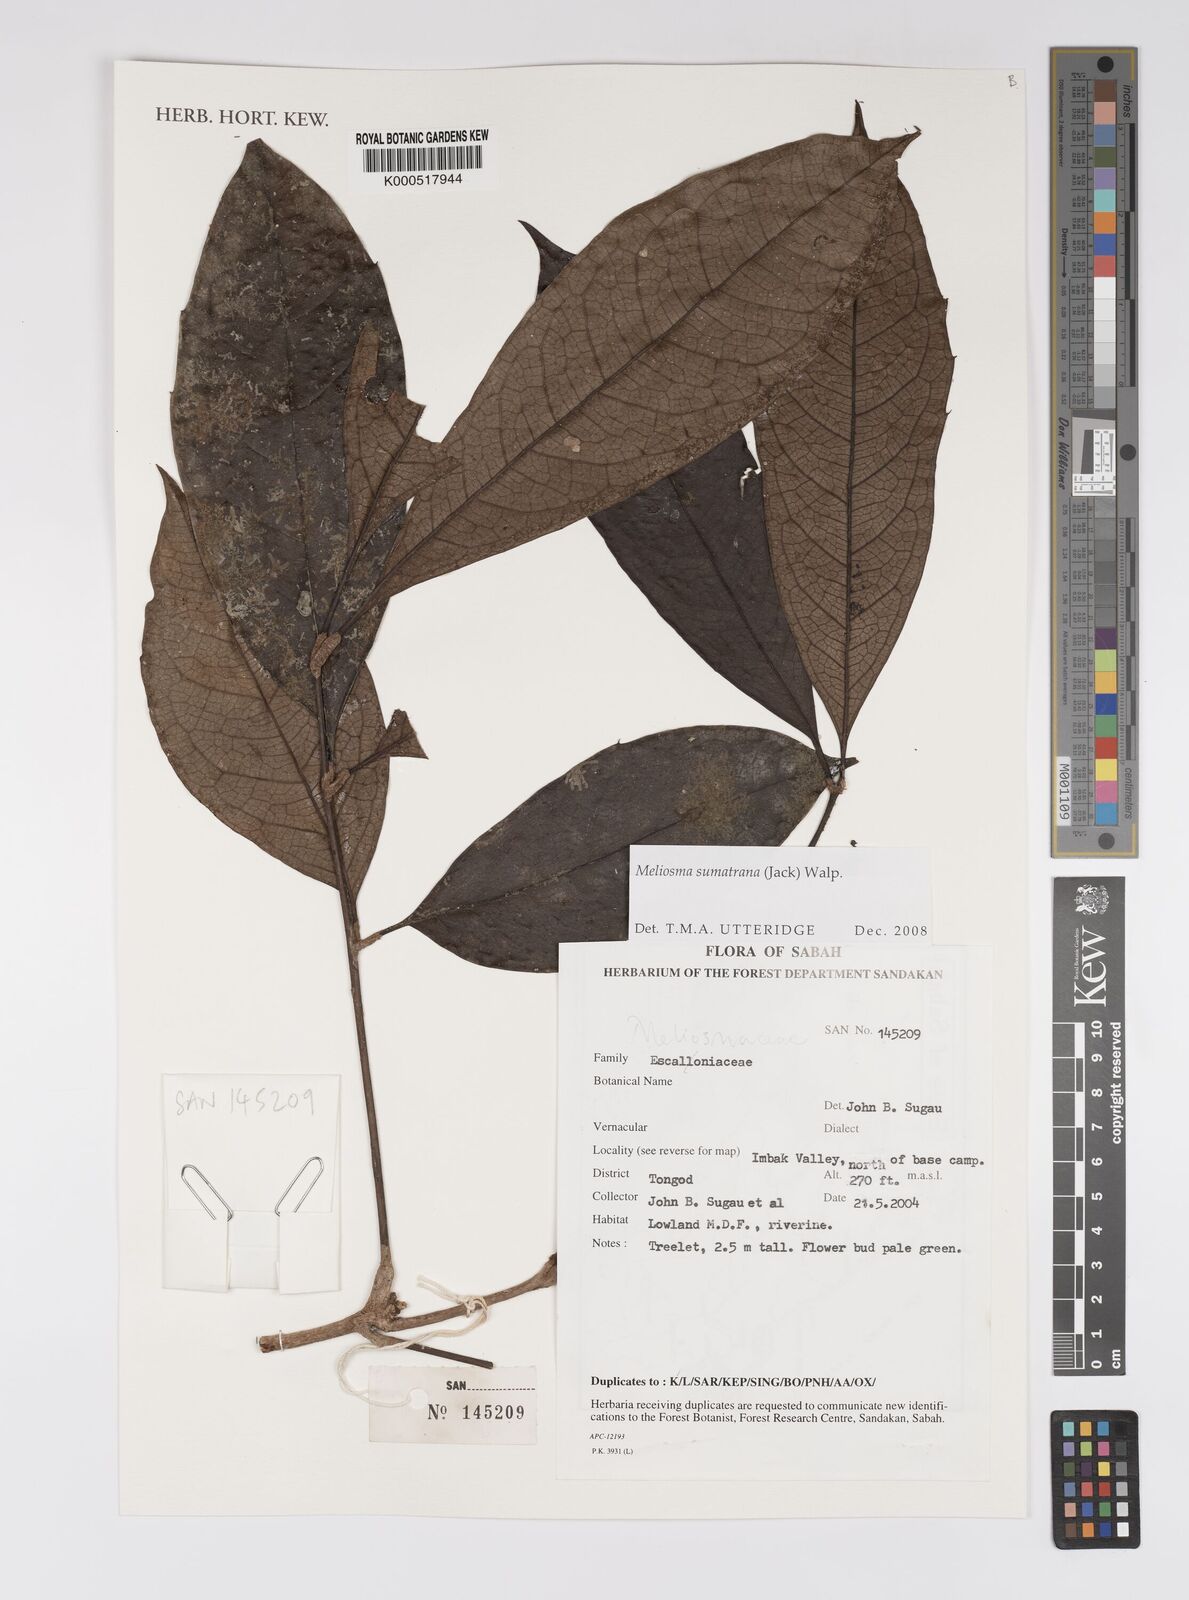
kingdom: Plantae
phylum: Tracheophyta
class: Magnoliopsida
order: Proteales
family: Sabiaceae
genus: Meliosma
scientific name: Meliosma sumatrana
